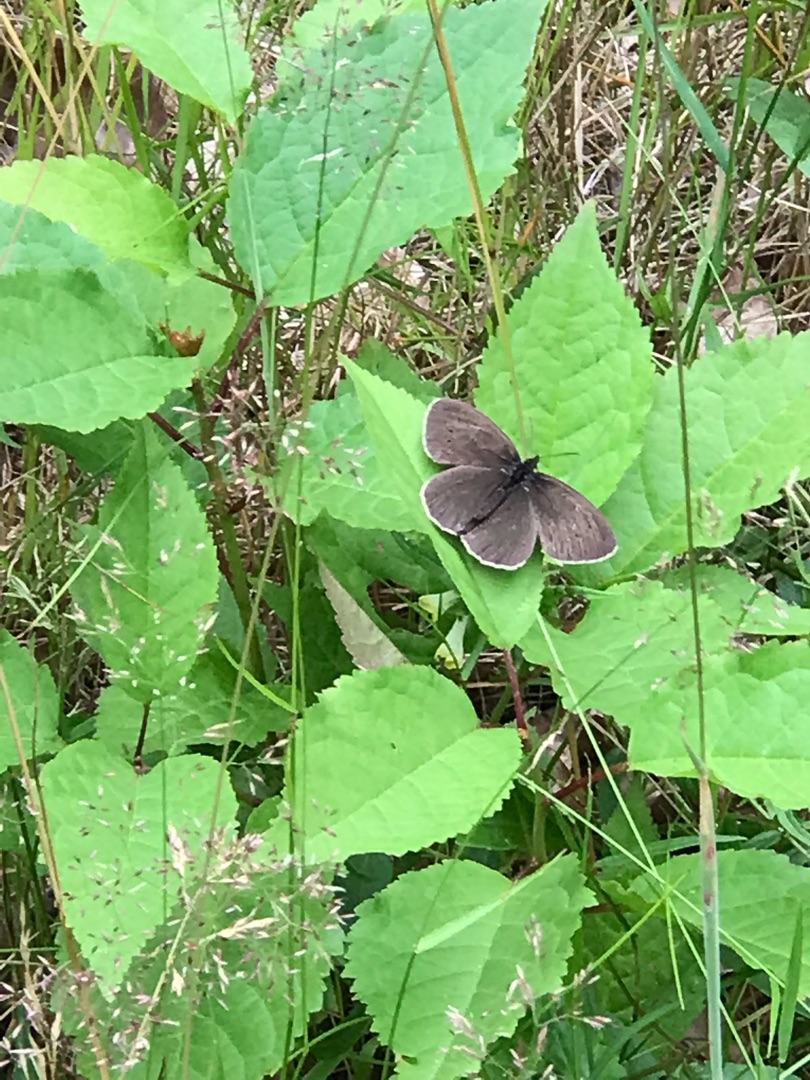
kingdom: Animalia
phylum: Arthropoda
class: Insecta
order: Lepidoptera
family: Nymphalidae
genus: Aphantopus
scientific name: Aphantopus hyperantus
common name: Engrandøje
